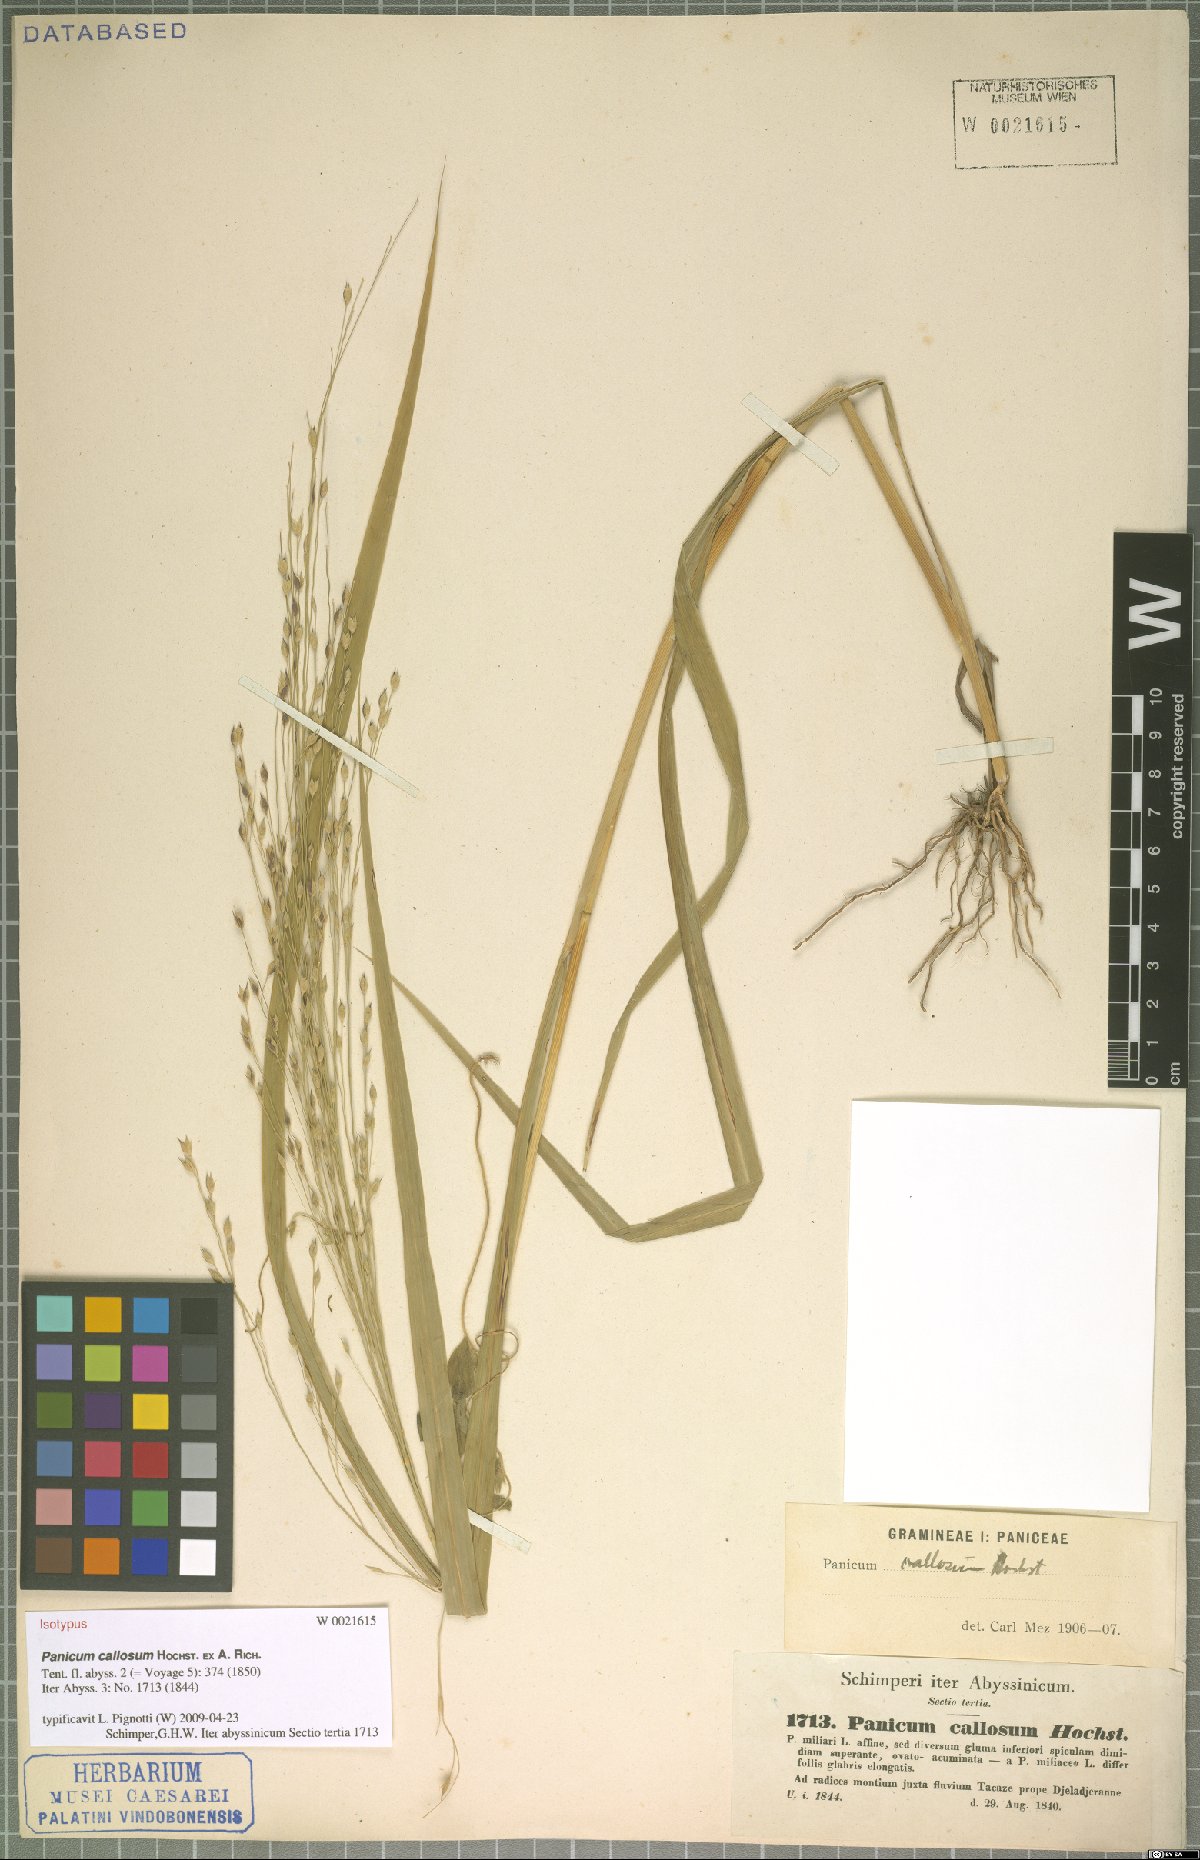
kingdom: Plantae
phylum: Tracheophyta
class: Liliopsida
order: Poales
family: Poaceae
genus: Panicum
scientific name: Panicum callosum
